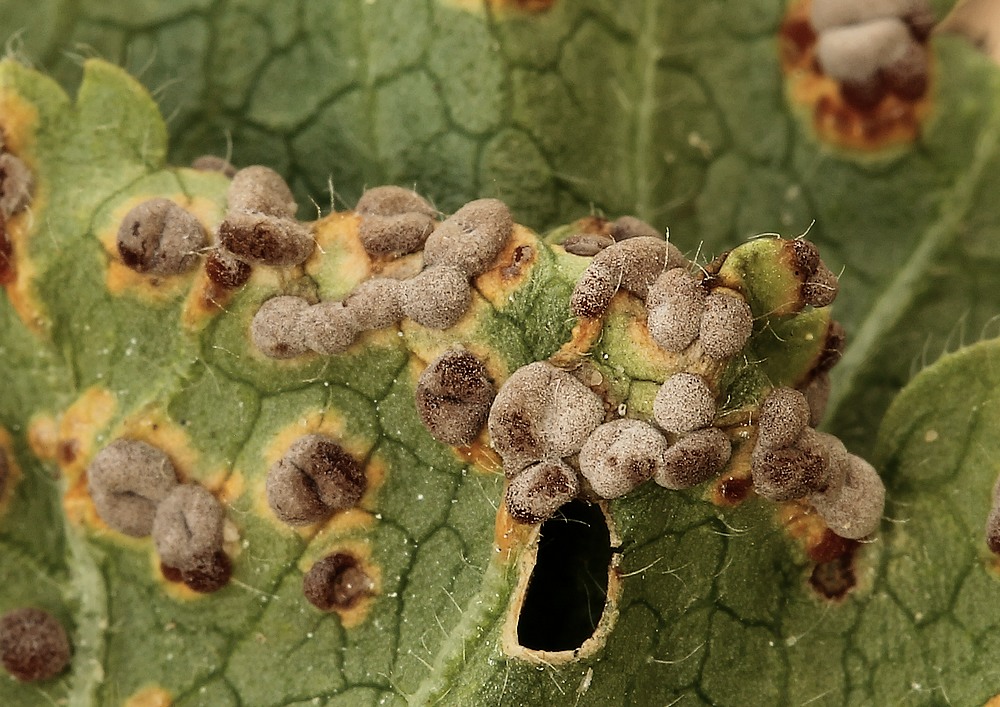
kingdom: Fungi
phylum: Basidiomycota
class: Pucciniomycetes
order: Pucciniales
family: Pucciniaceae
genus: Puccinia
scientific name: Puccinia malvacearum
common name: stokrose-tvecellerust
